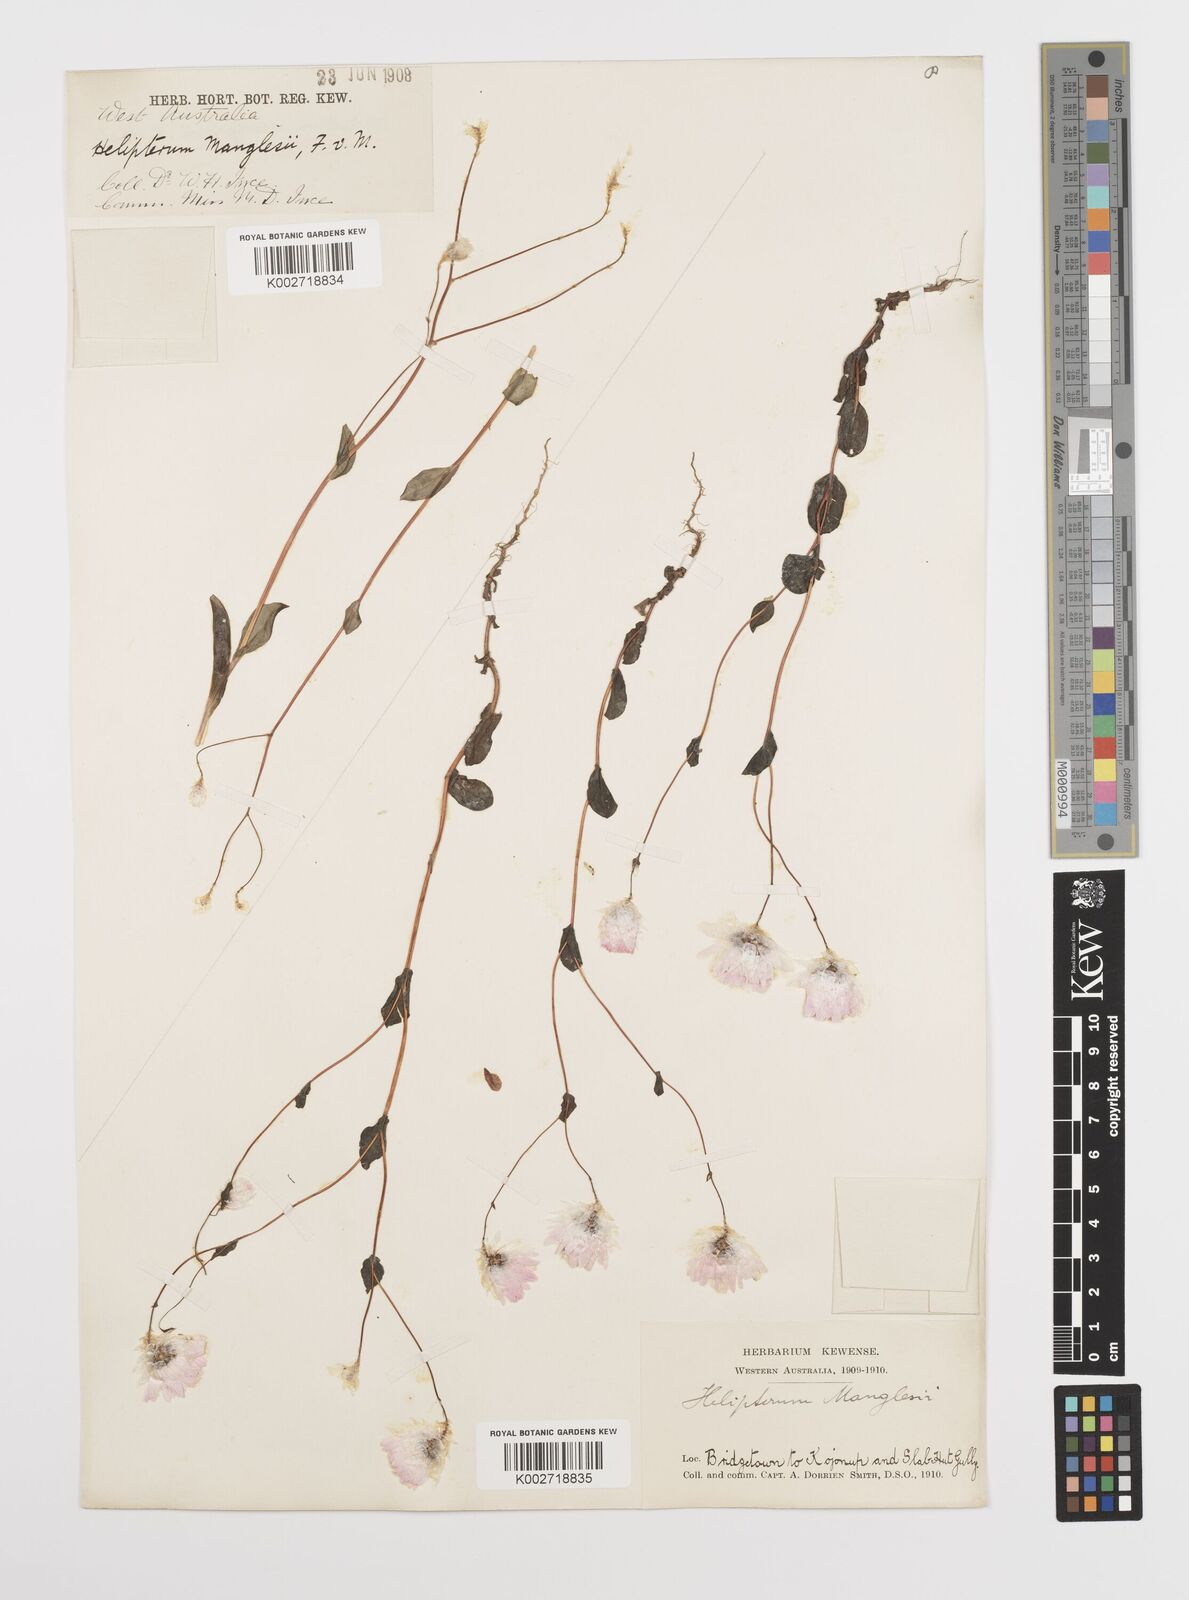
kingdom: Plantae
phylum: Tracheophyta
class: Magnoliopsida
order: Asterales
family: Asteraceae
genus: Rhodanthe
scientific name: Rhodanthe manglesii
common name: Pink sunray
